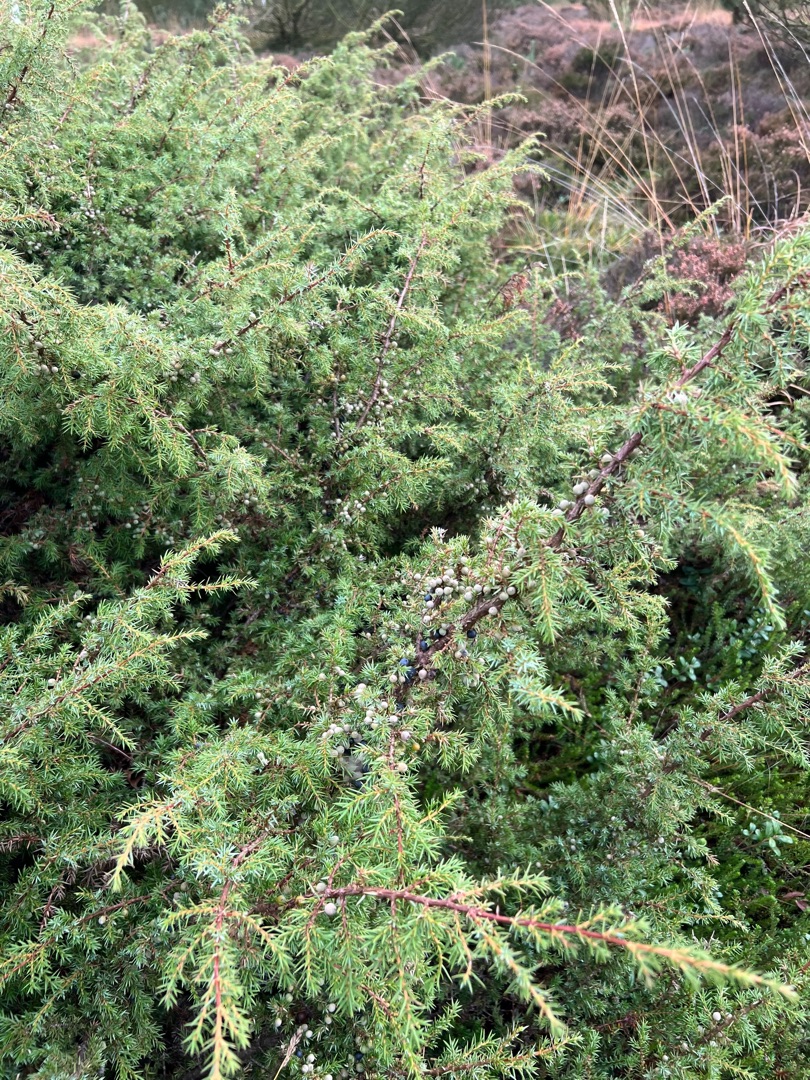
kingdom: Plantae
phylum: Tracheophyta
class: Pinopsida
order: Pinales
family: Cupressaceae
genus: Juniperus
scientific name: Juniperus communis
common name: Almindelig ene
